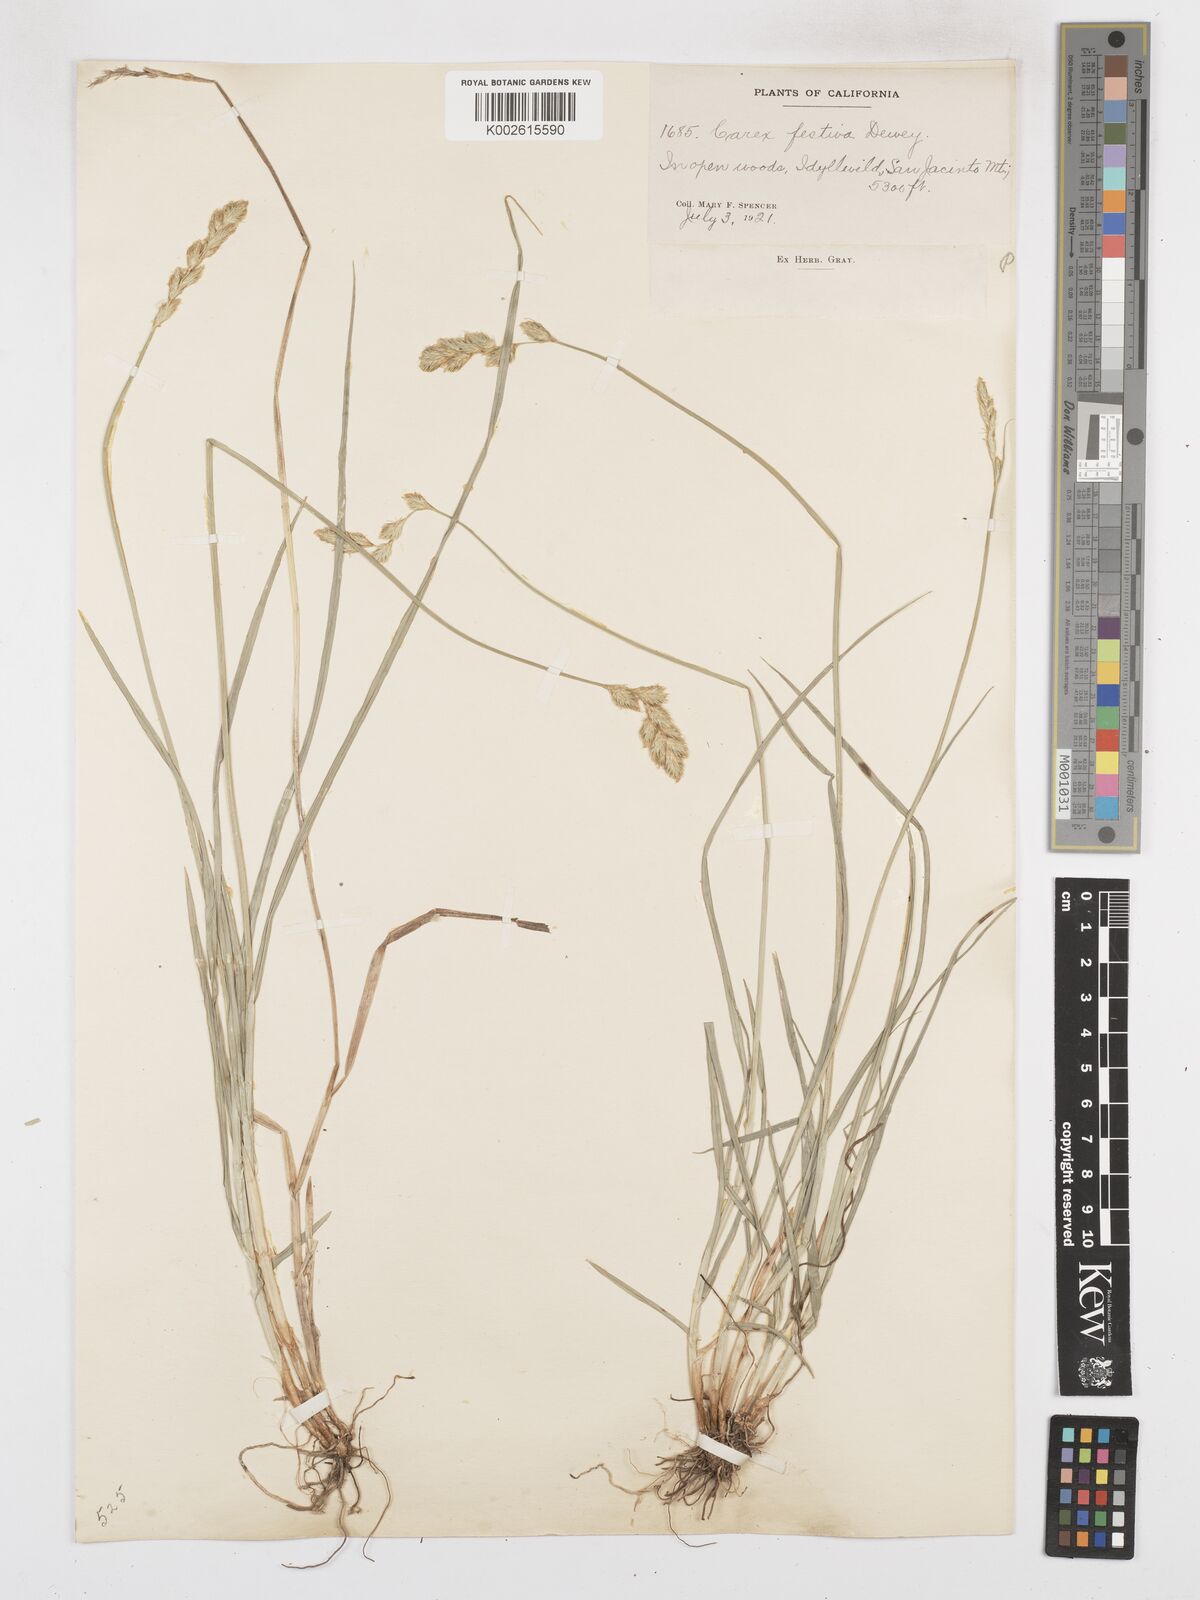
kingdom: Plantae
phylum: Tracheophyta
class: Liliopsida
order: Poales
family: Cyperaceae
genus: Carex
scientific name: Carex macloviana
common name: Falkland island sedge
